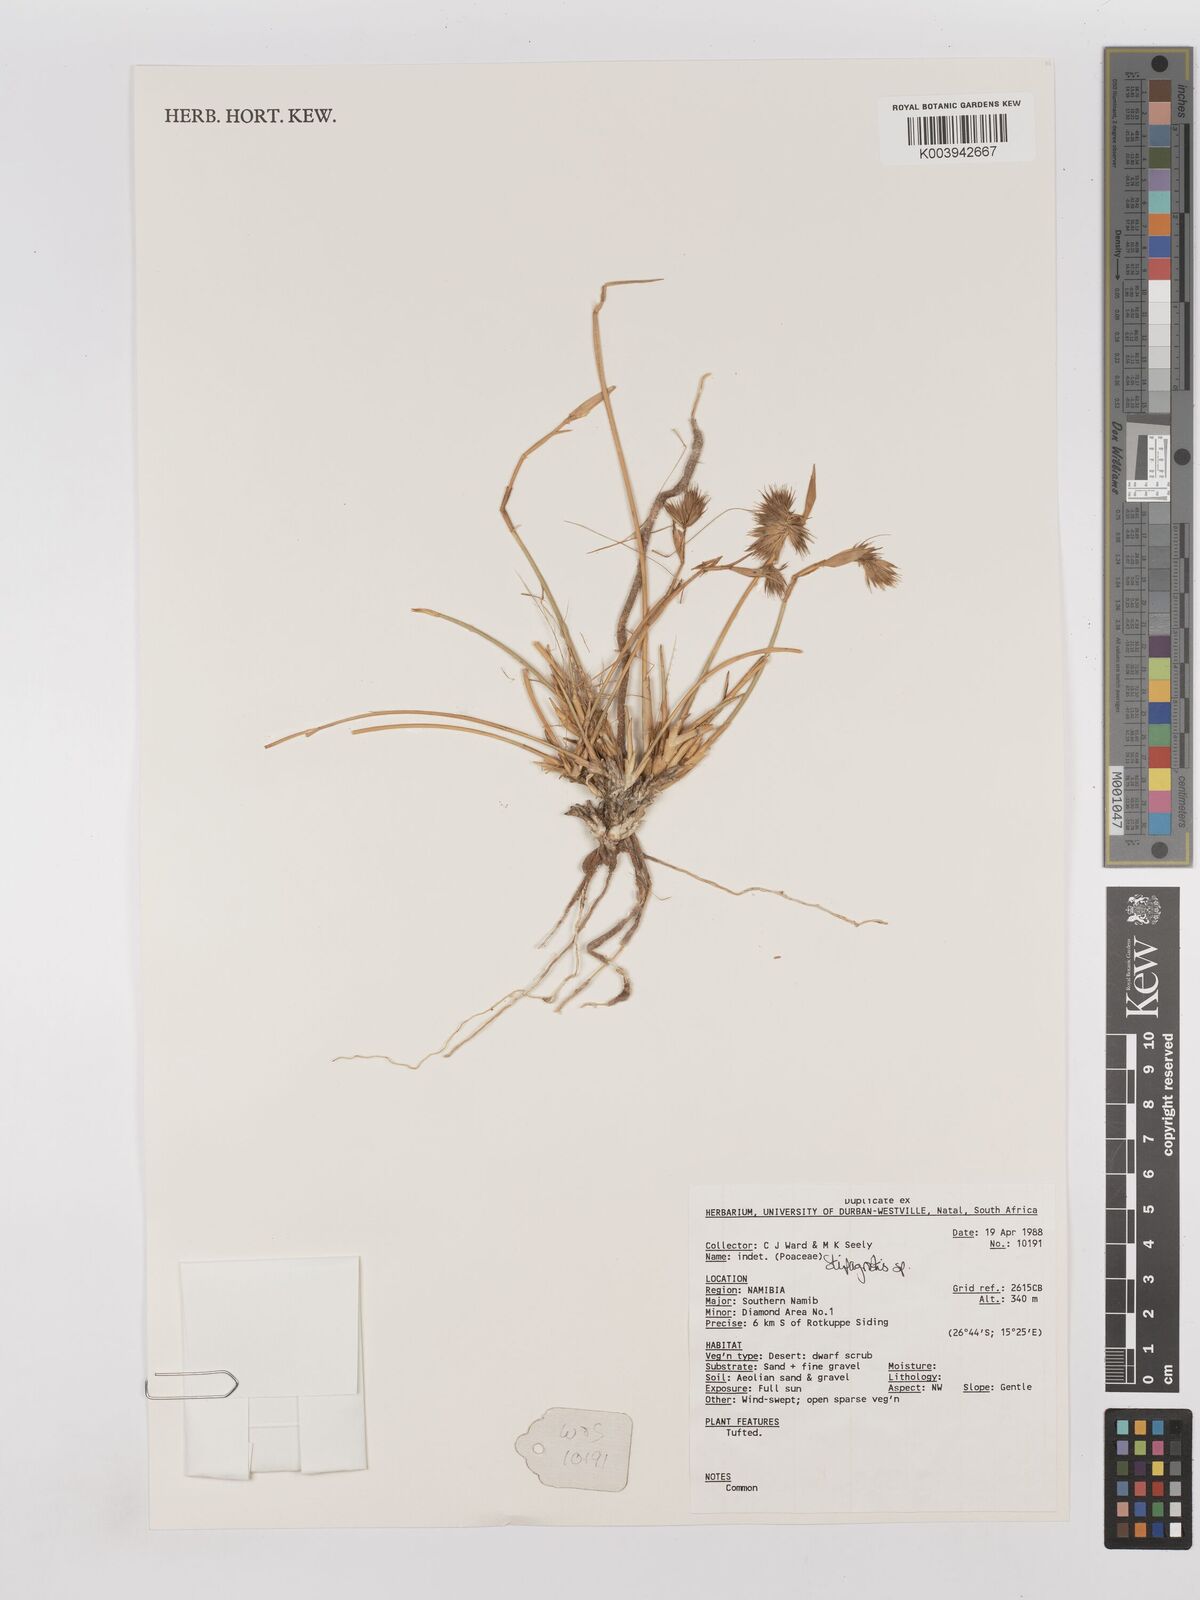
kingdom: Plantae
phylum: Tracheophyta
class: Liliopsida
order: Poales
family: Poaceae
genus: Stipagrostis
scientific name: Stipagrostis
